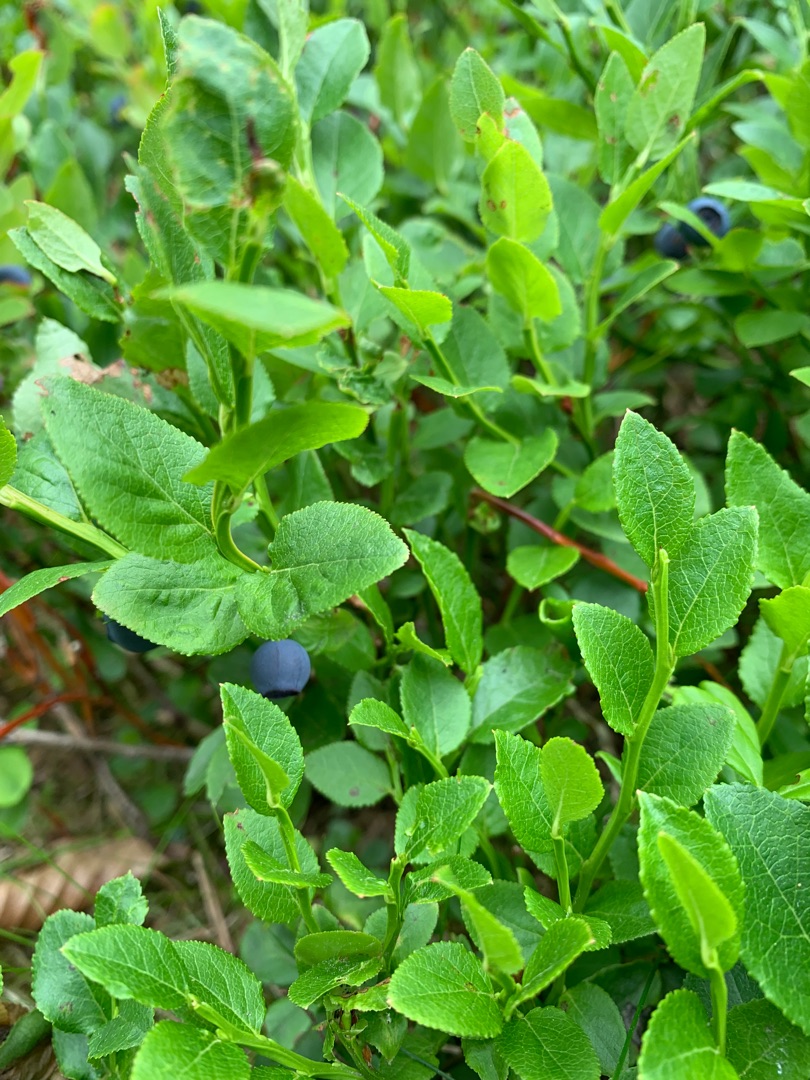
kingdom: Plantae
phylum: Tracheophyta
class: Magnoliopsida
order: Ericales
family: Ericaceae
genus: Vaccinium
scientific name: Vaccinium myrtillus
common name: Blåbær
